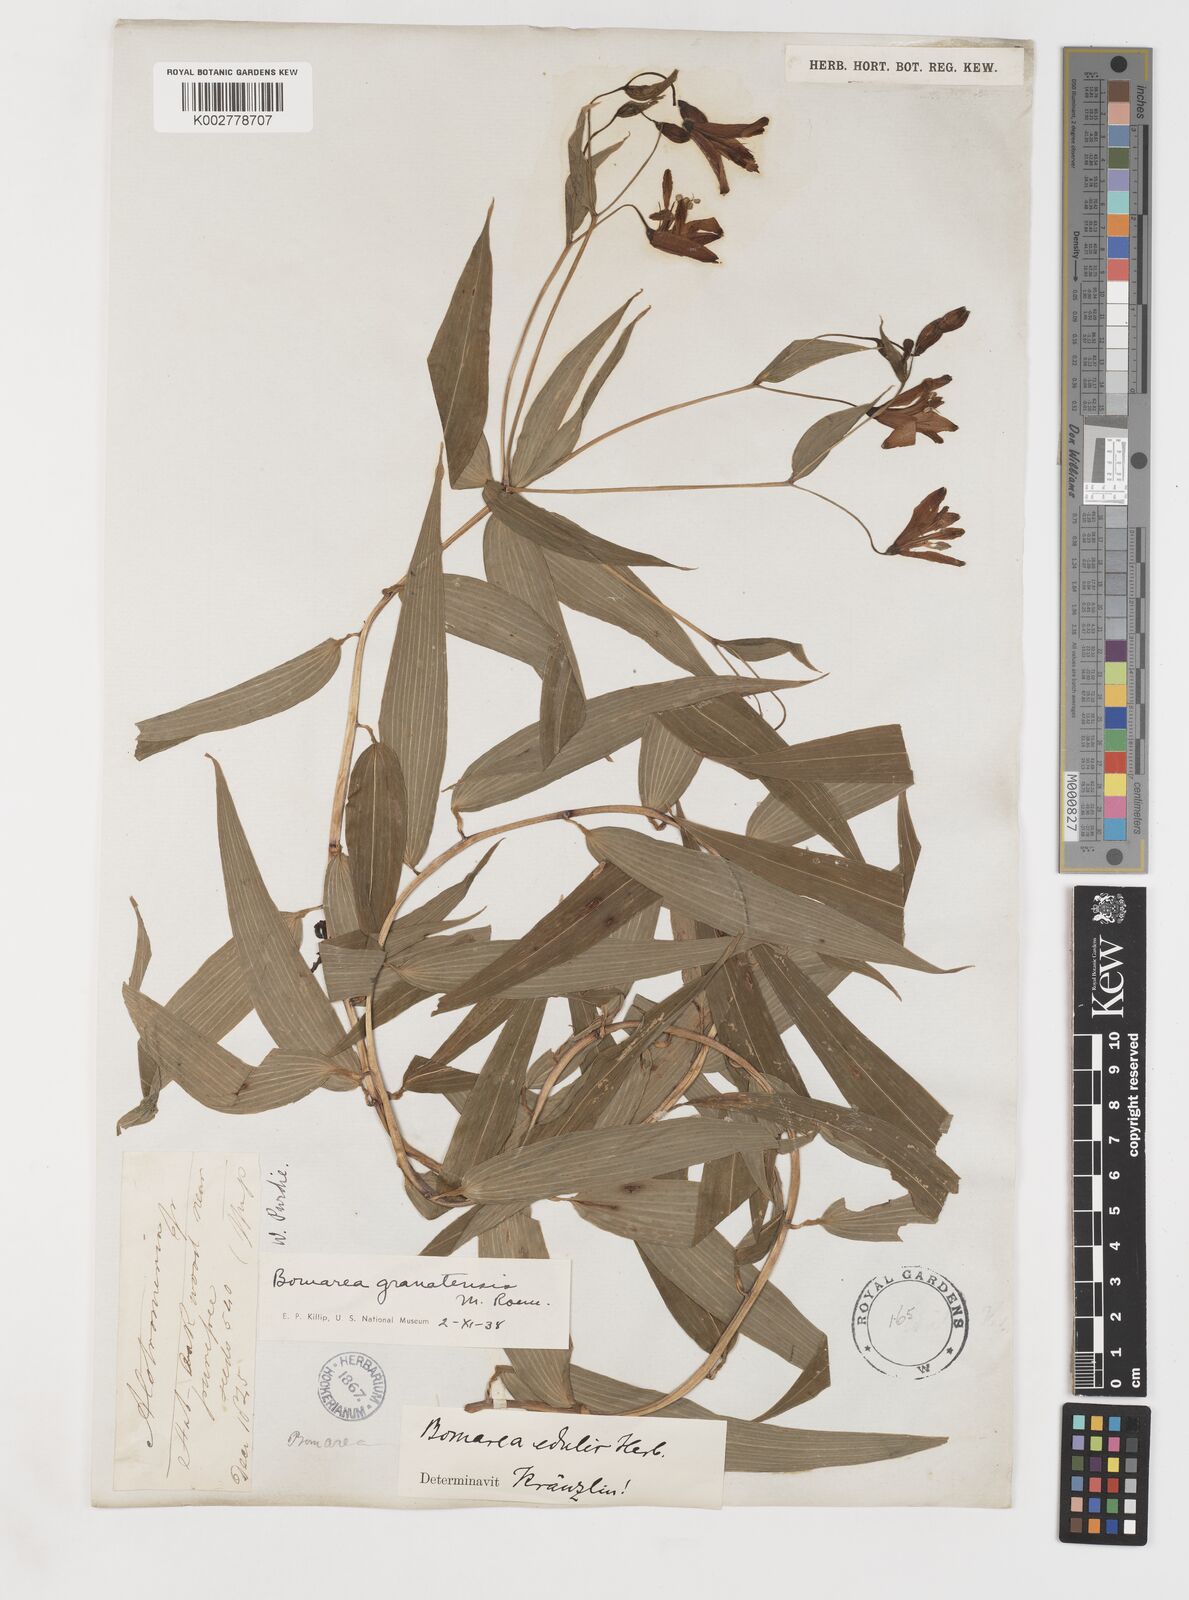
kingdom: Plantae
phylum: Tracheophyta
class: Liliopsida
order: Liliales
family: Alstroemeriaceae
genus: Bomarea
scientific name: Bomarea edulis
